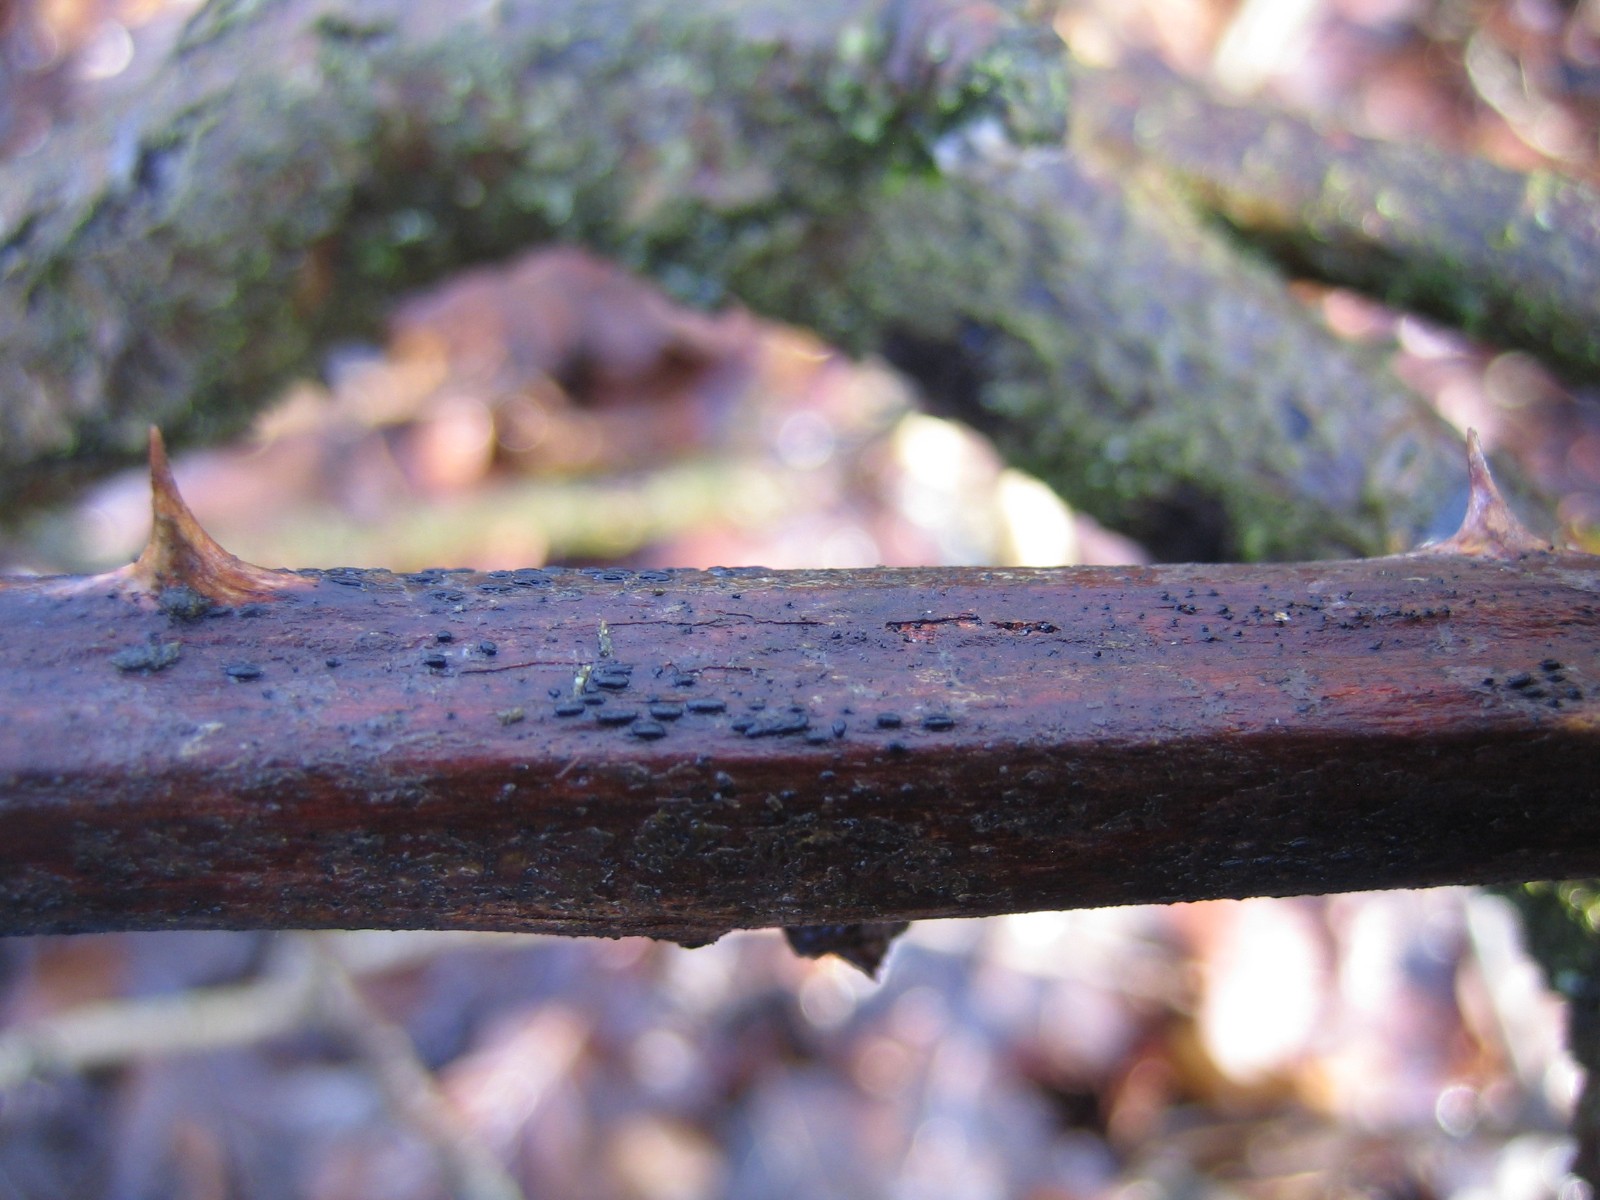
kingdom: Fungi
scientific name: Fungi
